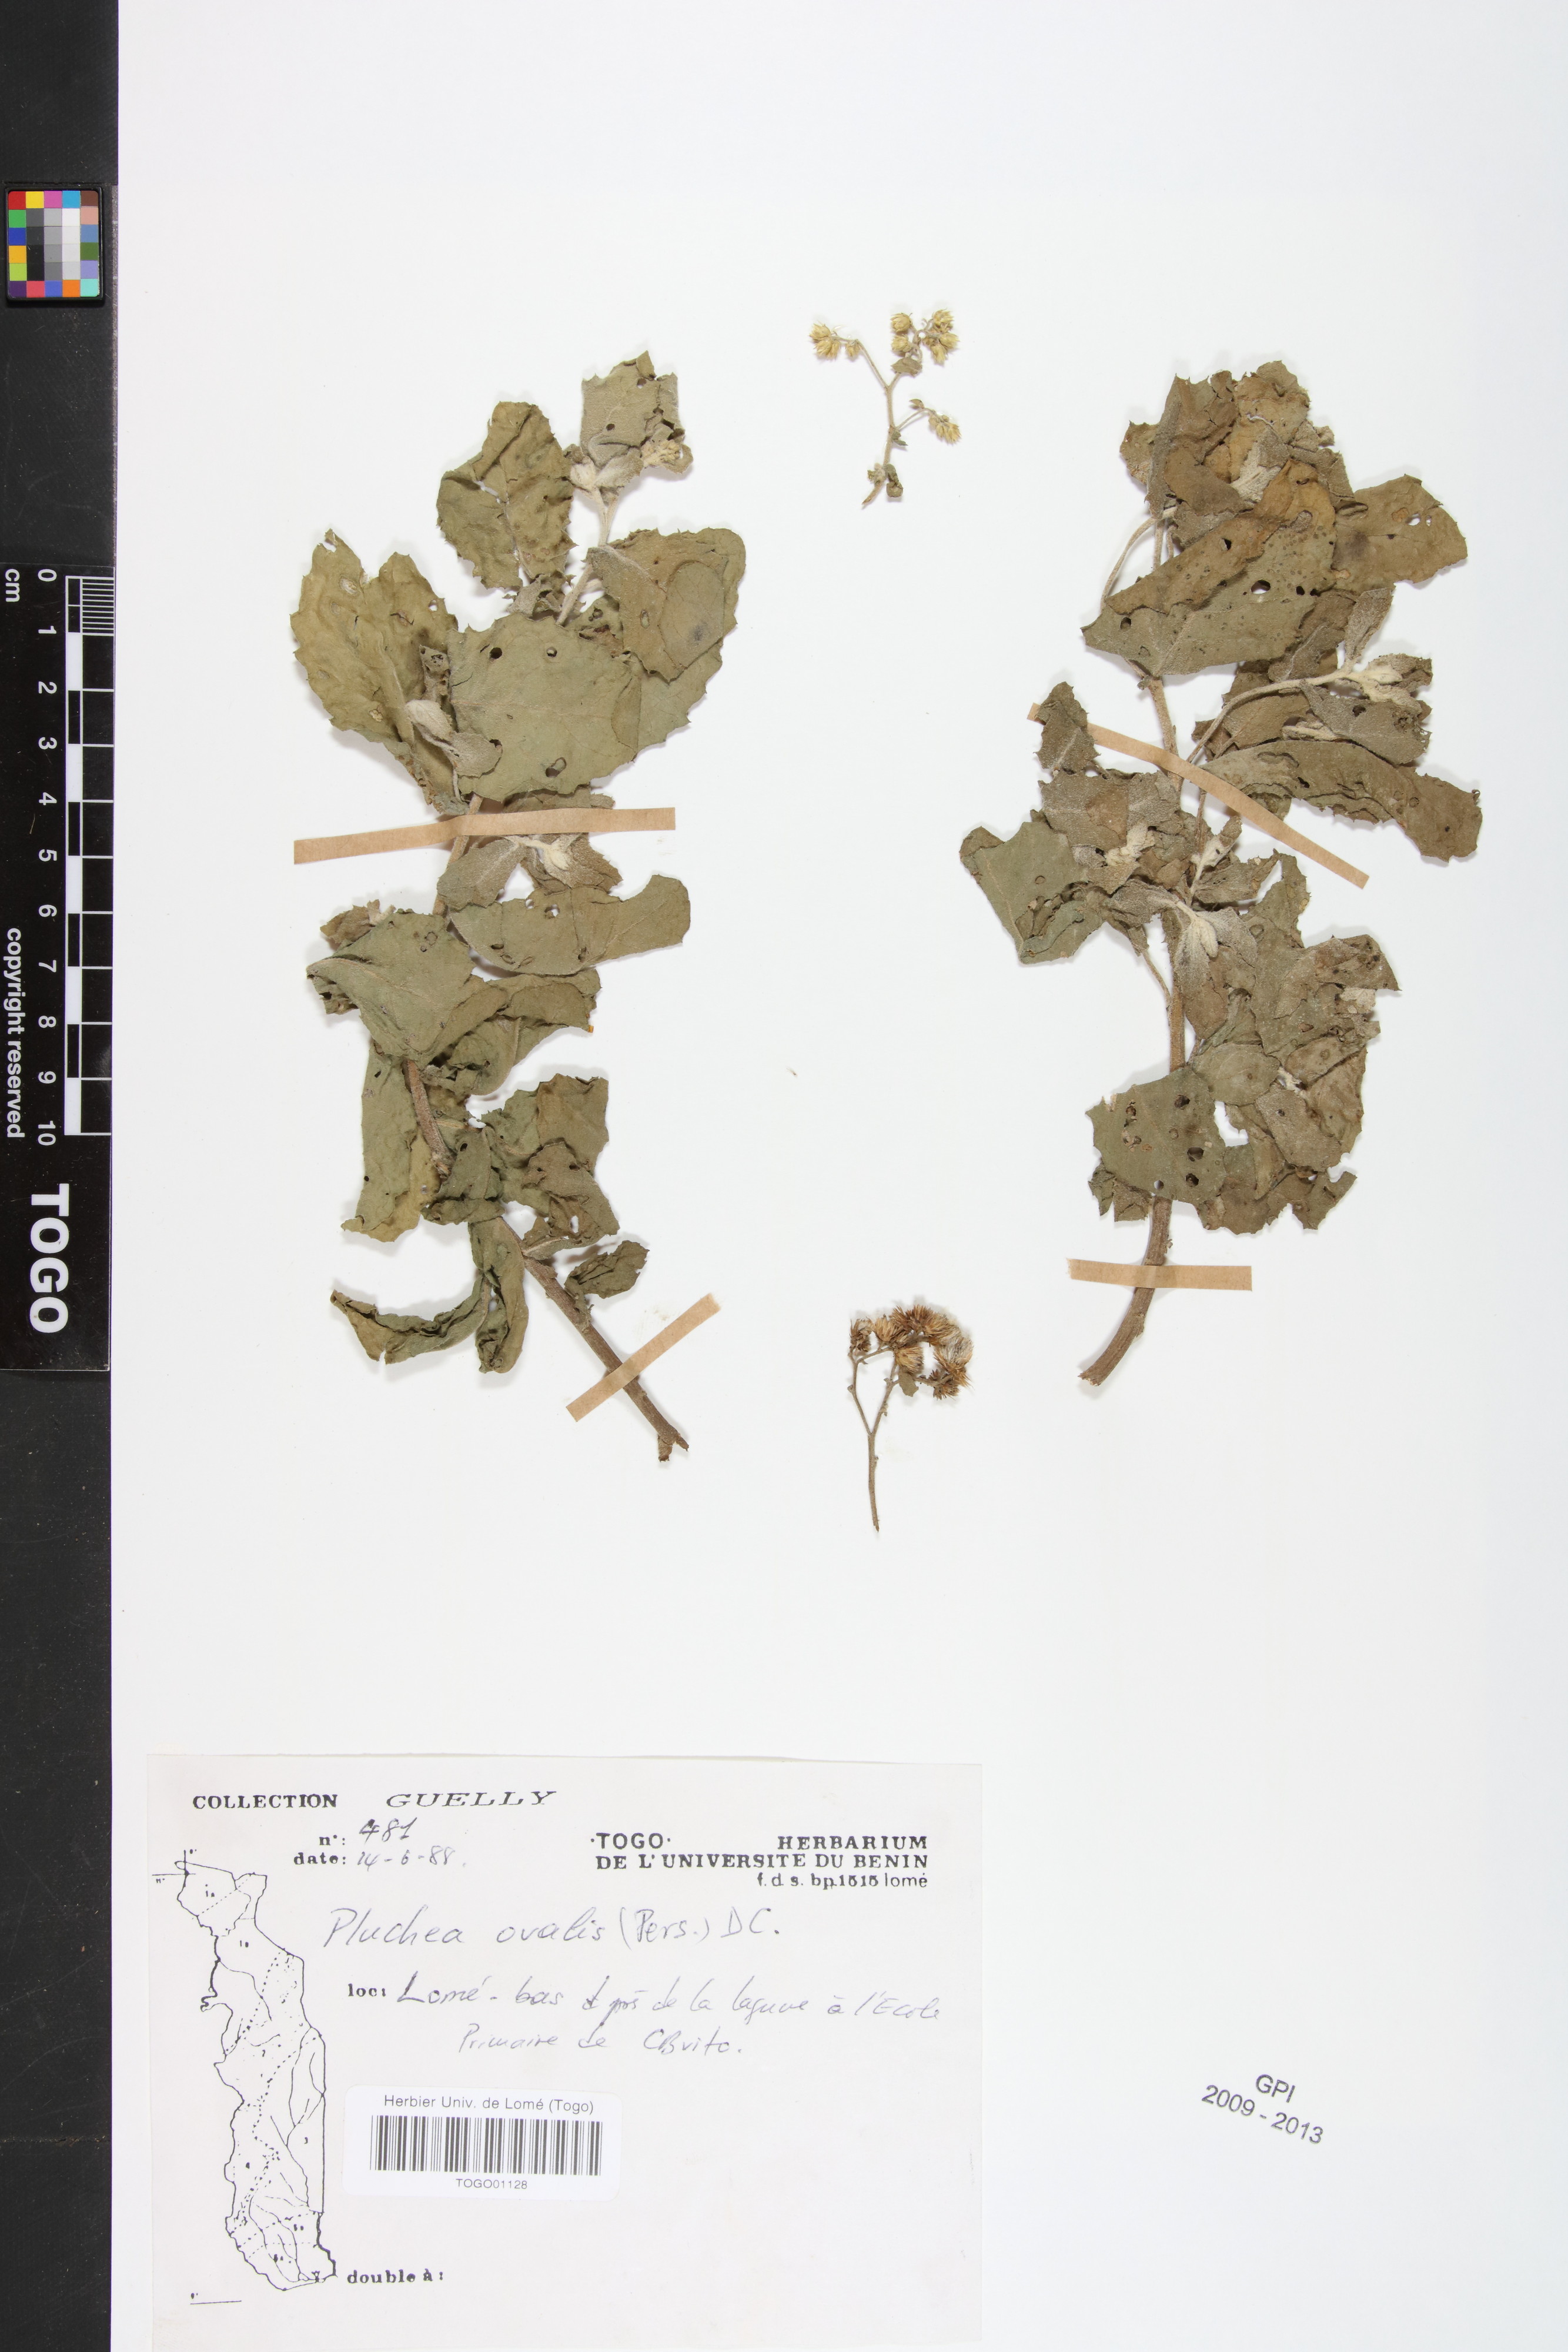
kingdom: Plantae
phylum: Tracheophyta
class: Magnoliopsida
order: Asterales
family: Asteraceae
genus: Pluchea
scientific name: Pluchea ovalis
